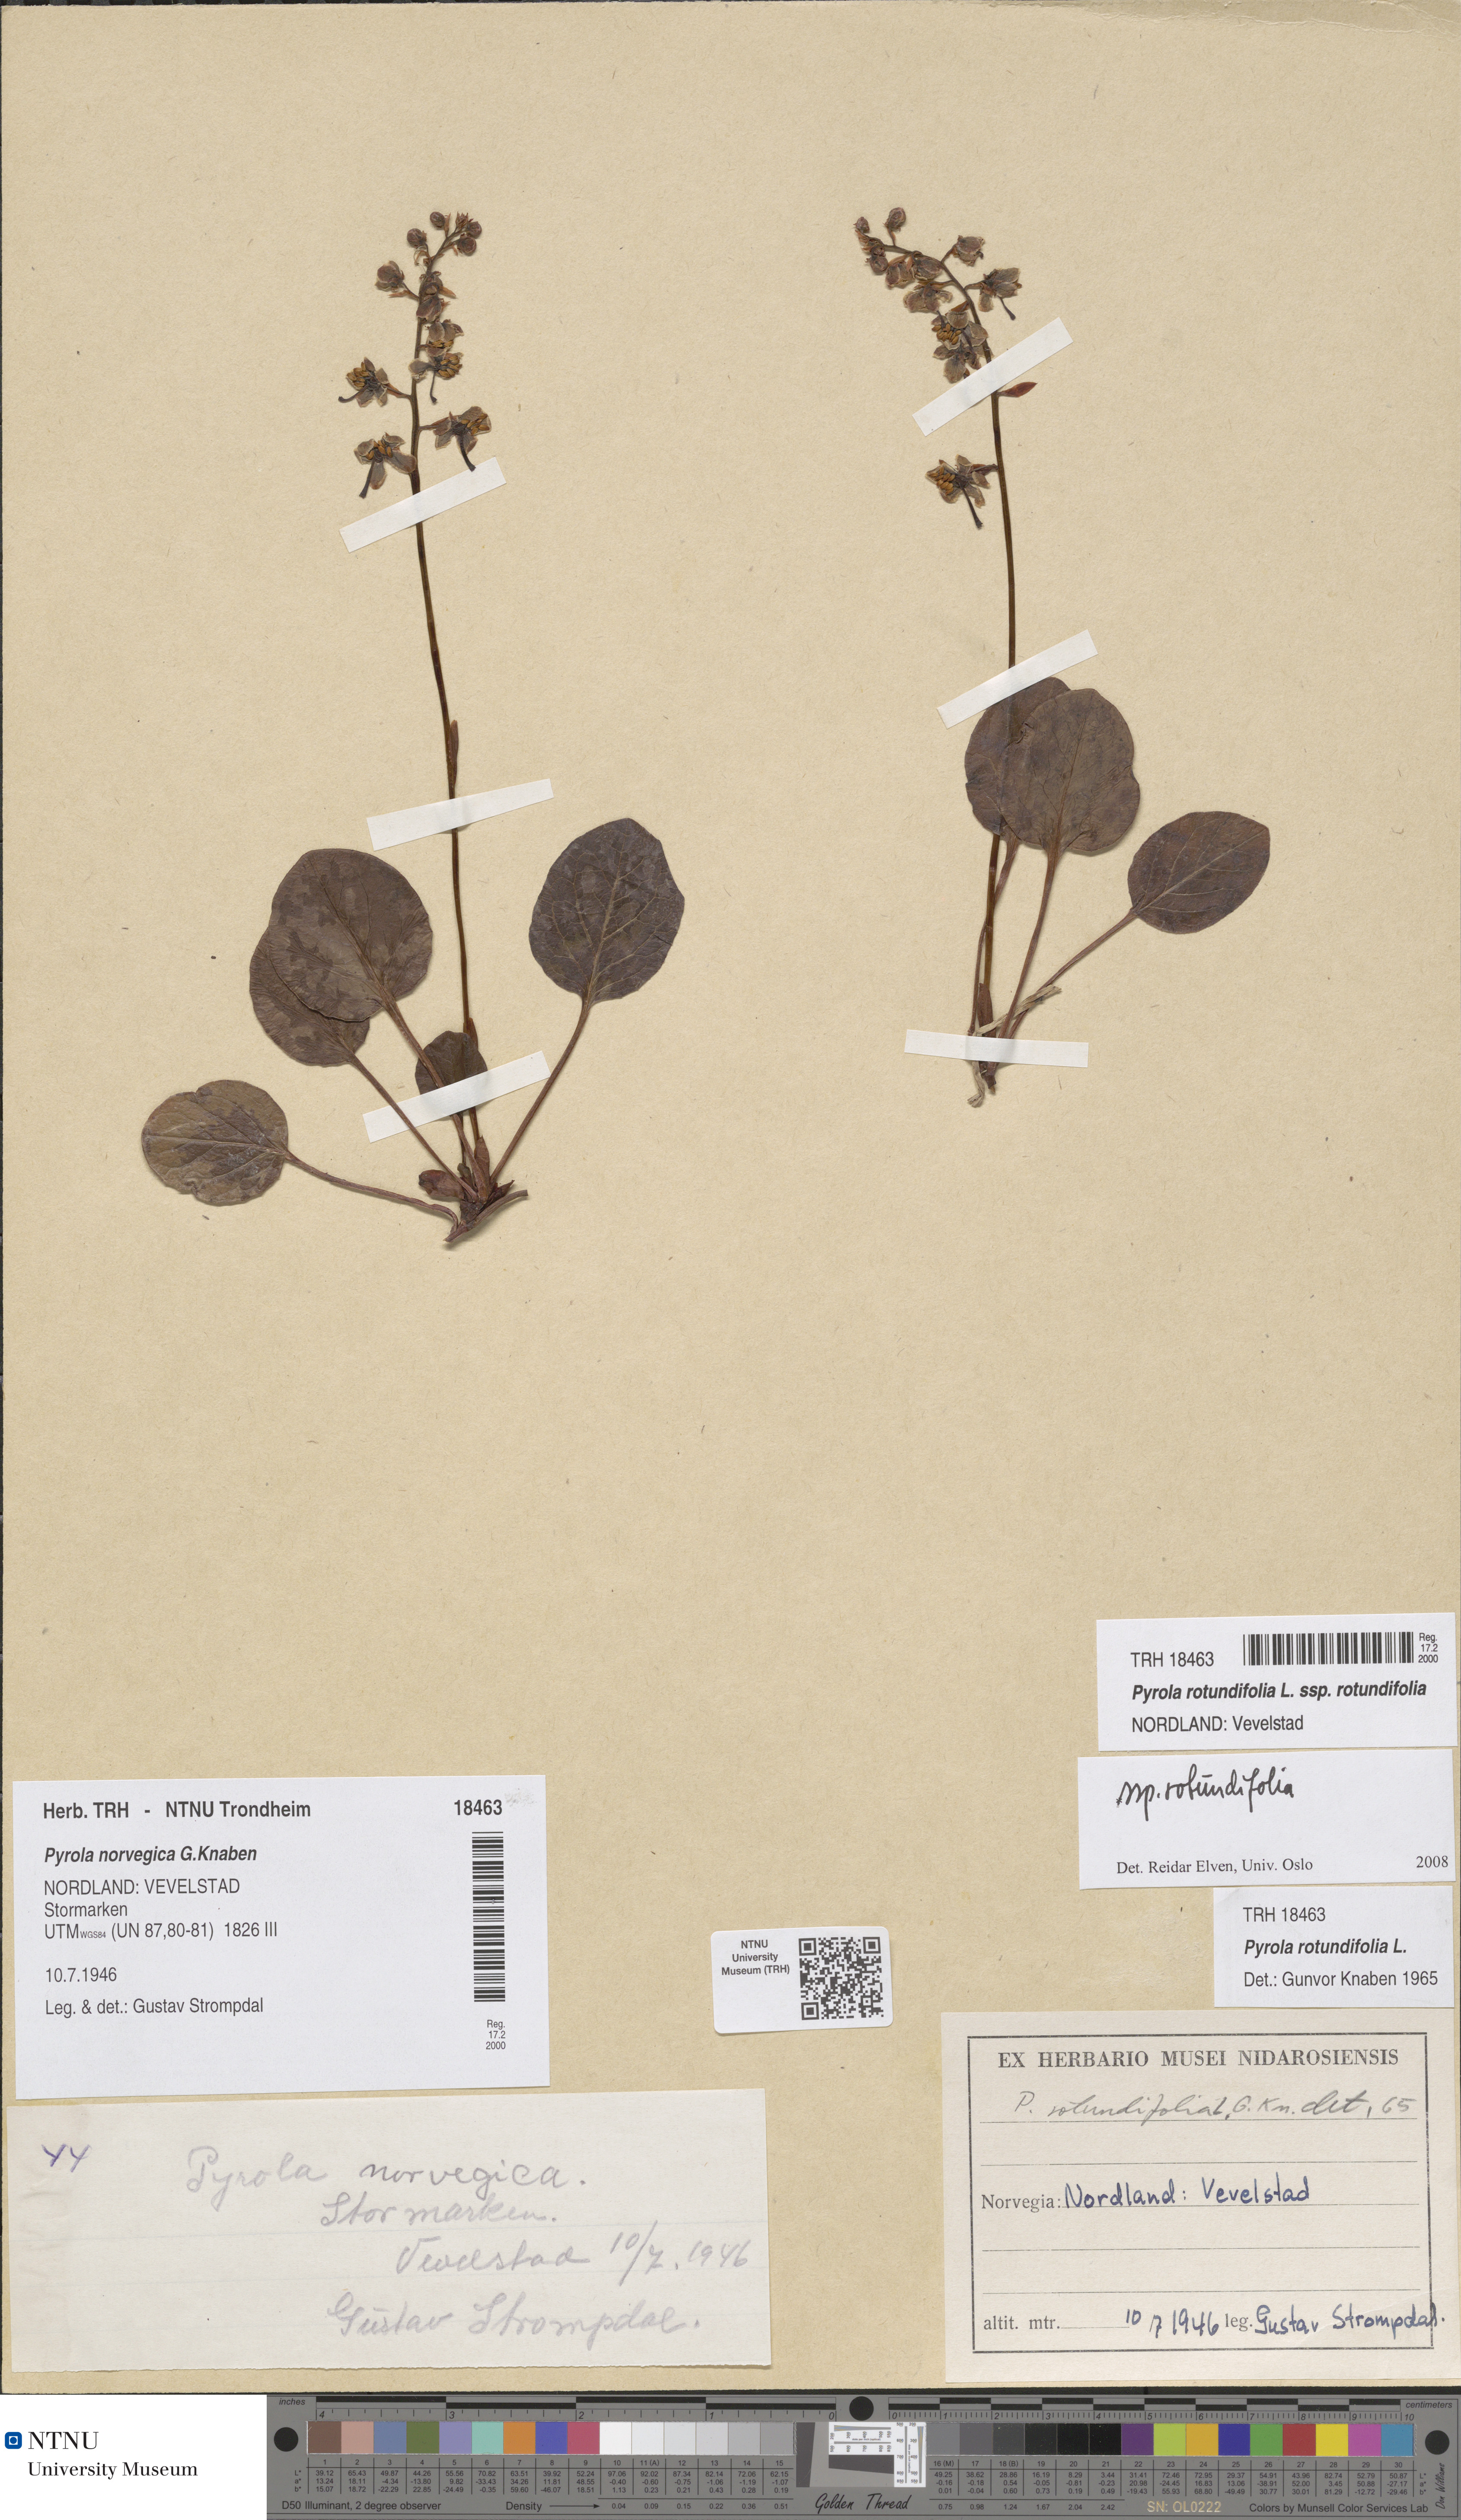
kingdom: Plantae
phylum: Tracheophyta
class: Magnoliopsida
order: Ericales
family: Ericaceae
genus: Pyrola
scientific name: Pyrola rotundifolia
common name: Round-leaved wintergreen
